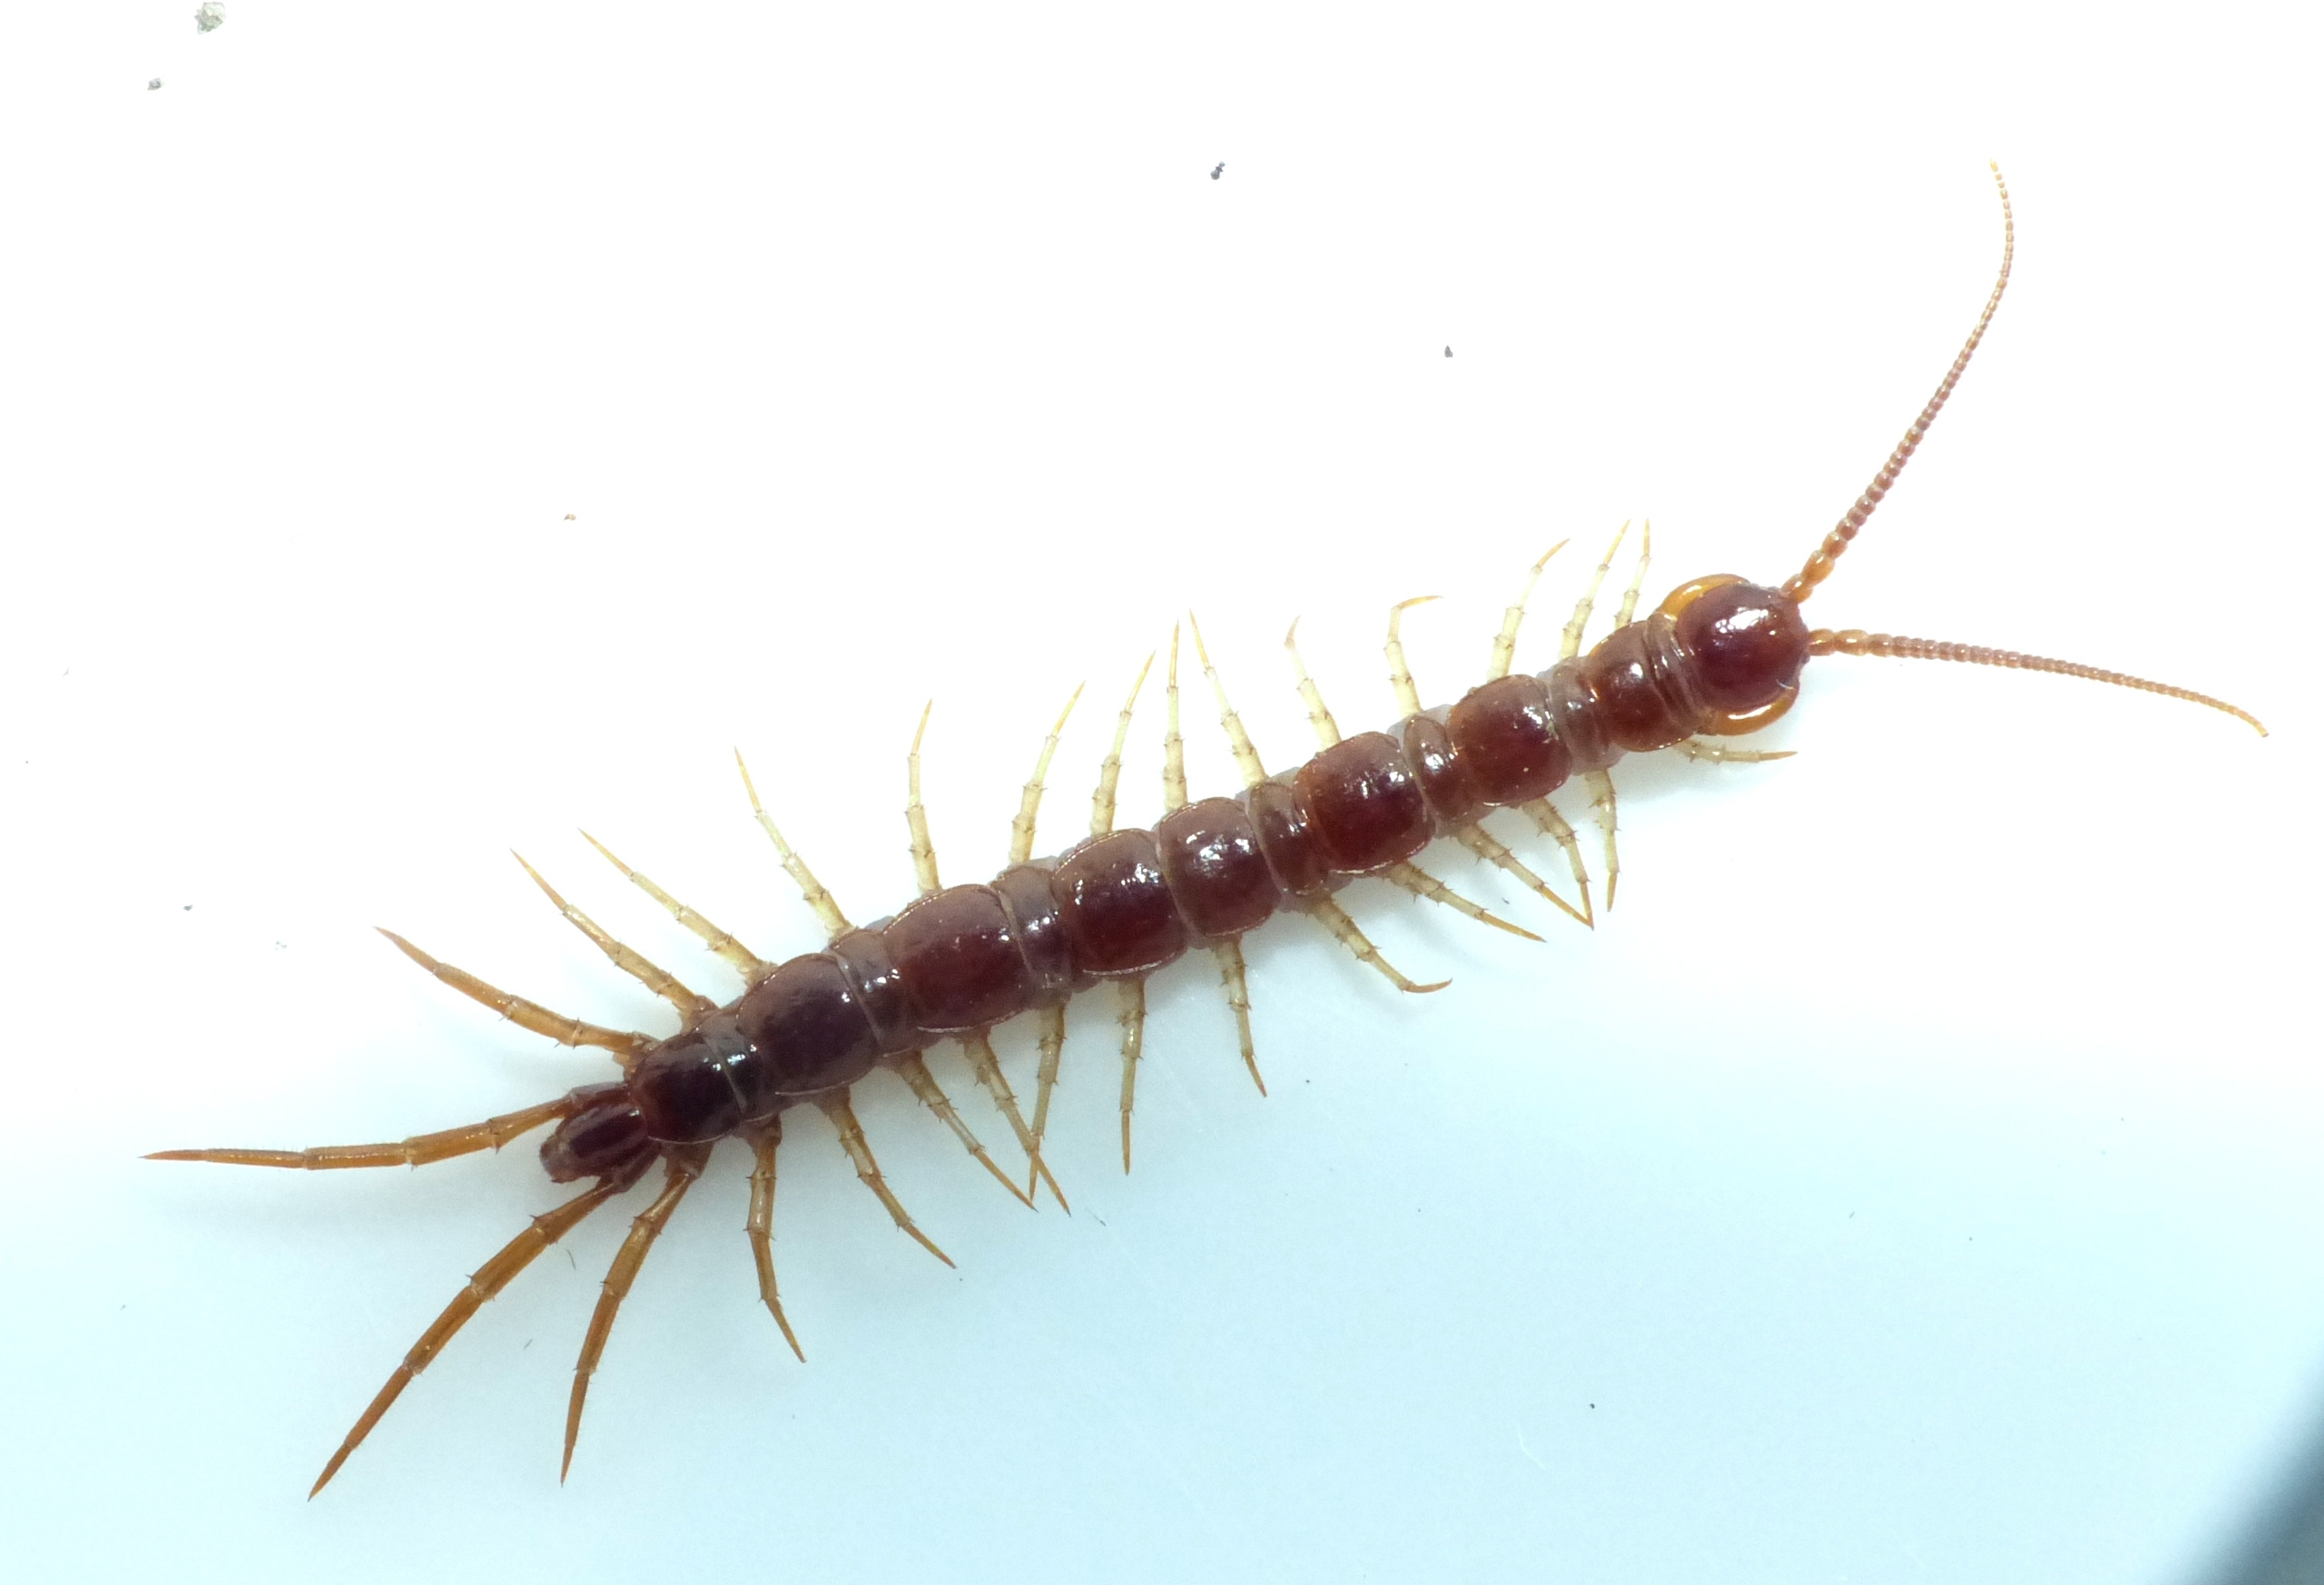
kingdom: Animalia
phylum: Arthropoda
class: Chilopoda
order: Lithobiomorpha
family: Lithobiidae
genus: Lithobius
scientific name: Lithobius forficatus
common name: Stenskolopender
